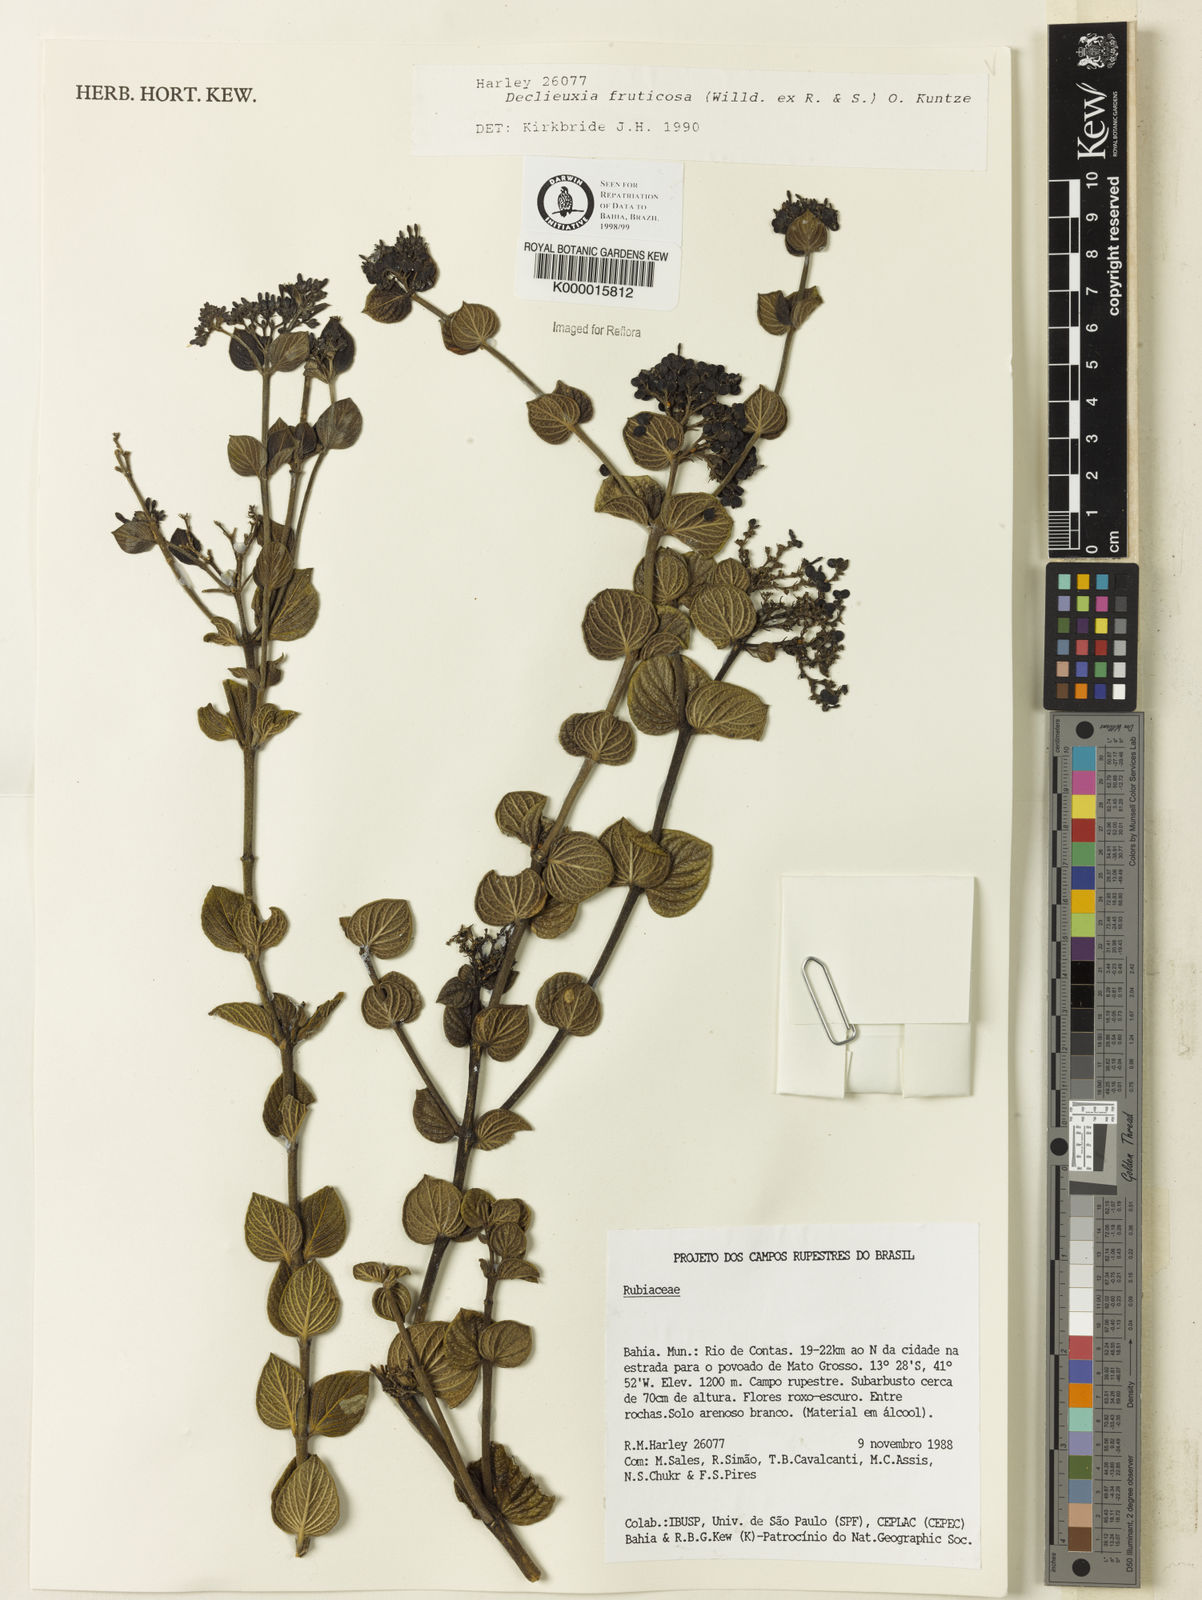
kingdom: Plantae
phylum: Tracheophyta
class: Magnoliopsida
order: Gentianales
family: Rubiaceae
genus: Declieuxia
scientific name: Declieuxia fruticosa
